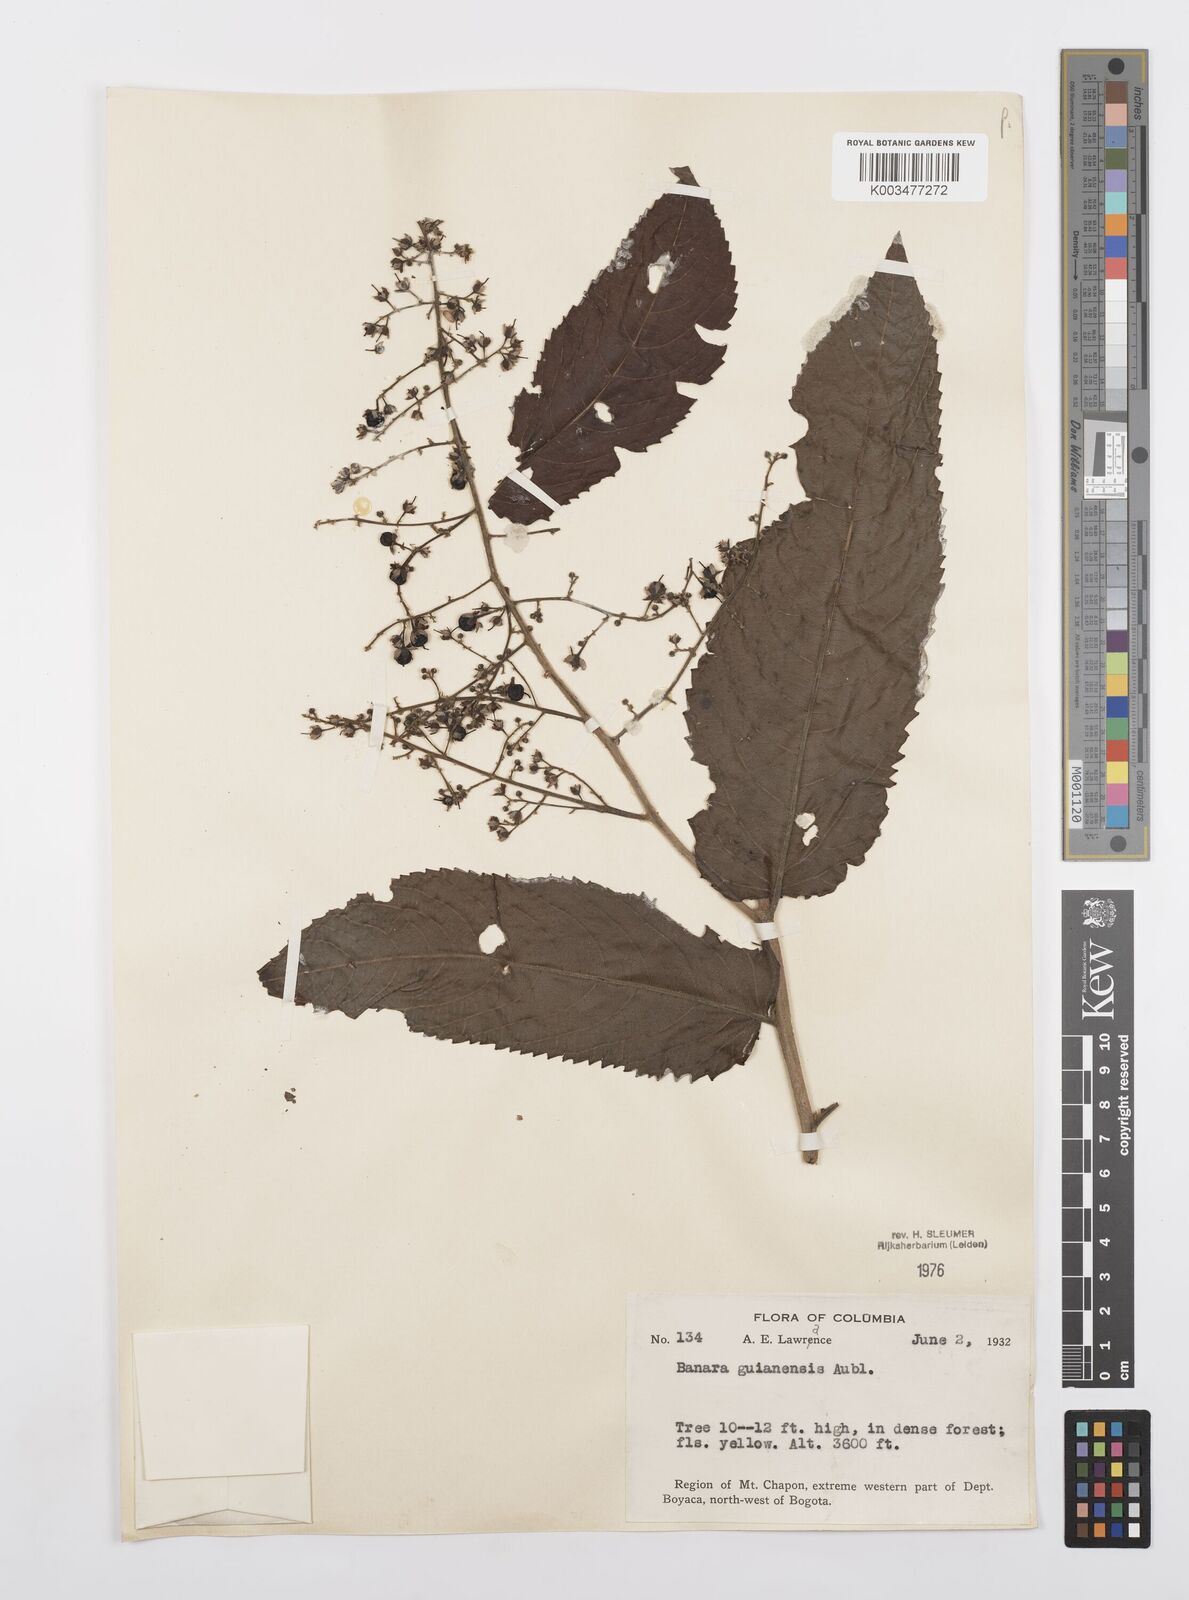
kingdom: Plantae
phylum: Tracheophyta
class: Magnoliopsida
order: Malpighiales
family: Salicaceae
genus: Banara
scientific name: Banara guianensis
